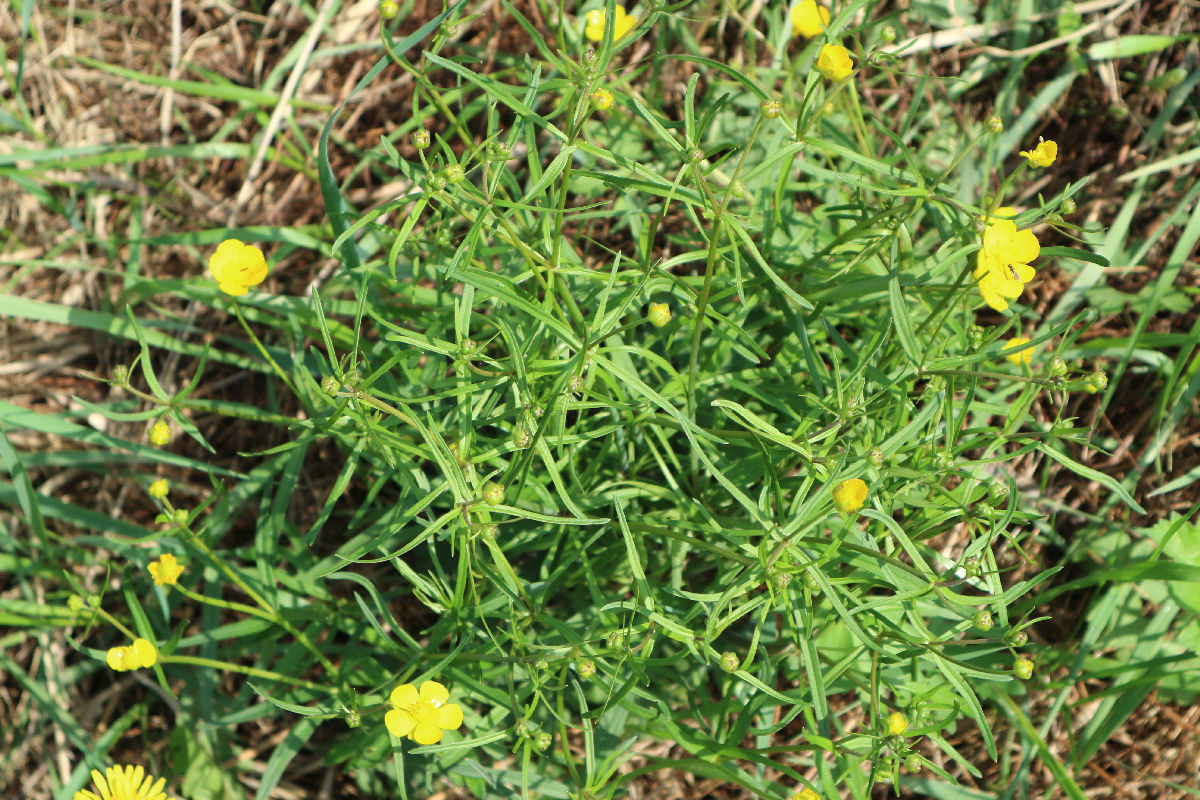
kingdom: Plantae
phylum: Tracheophyta
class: Magnoliopsida
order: Ranunculales
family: Ranunculaceae
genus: Ranunculus
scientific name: Ranunculus cassubicus
